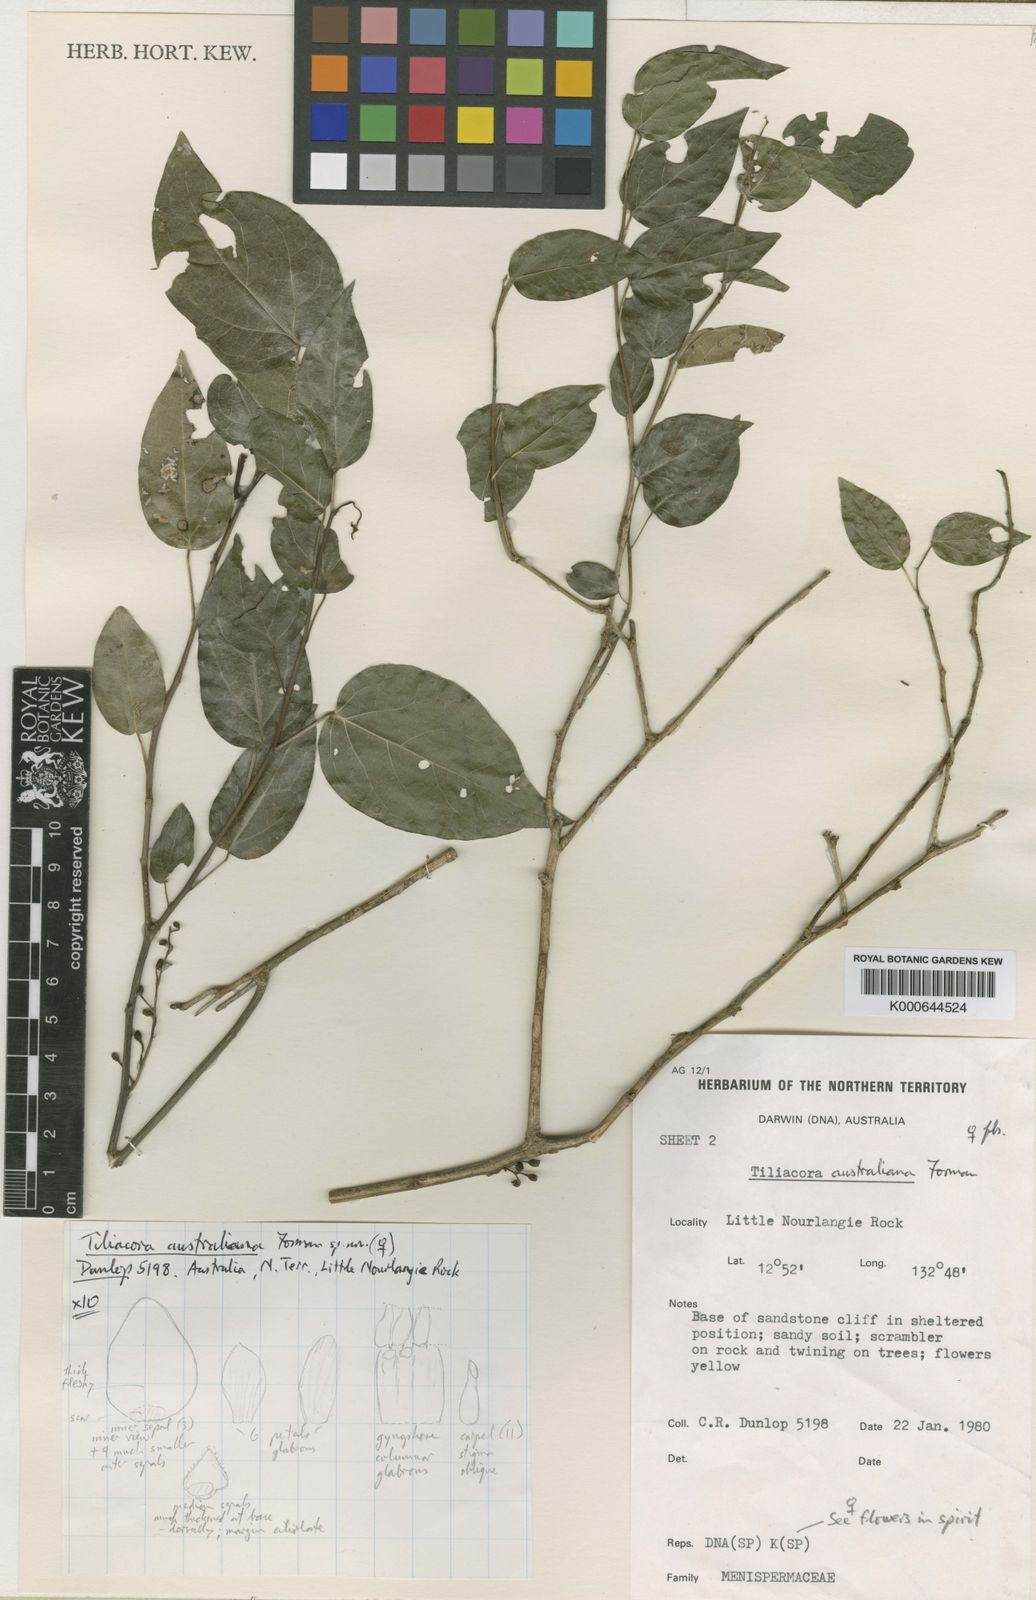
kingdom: Plantae
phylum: Tracheophyta
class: Magnoliopsida
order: Ranunculales
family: Menispermaceae
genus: Tiliacora
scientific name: Tiliacora australiana
